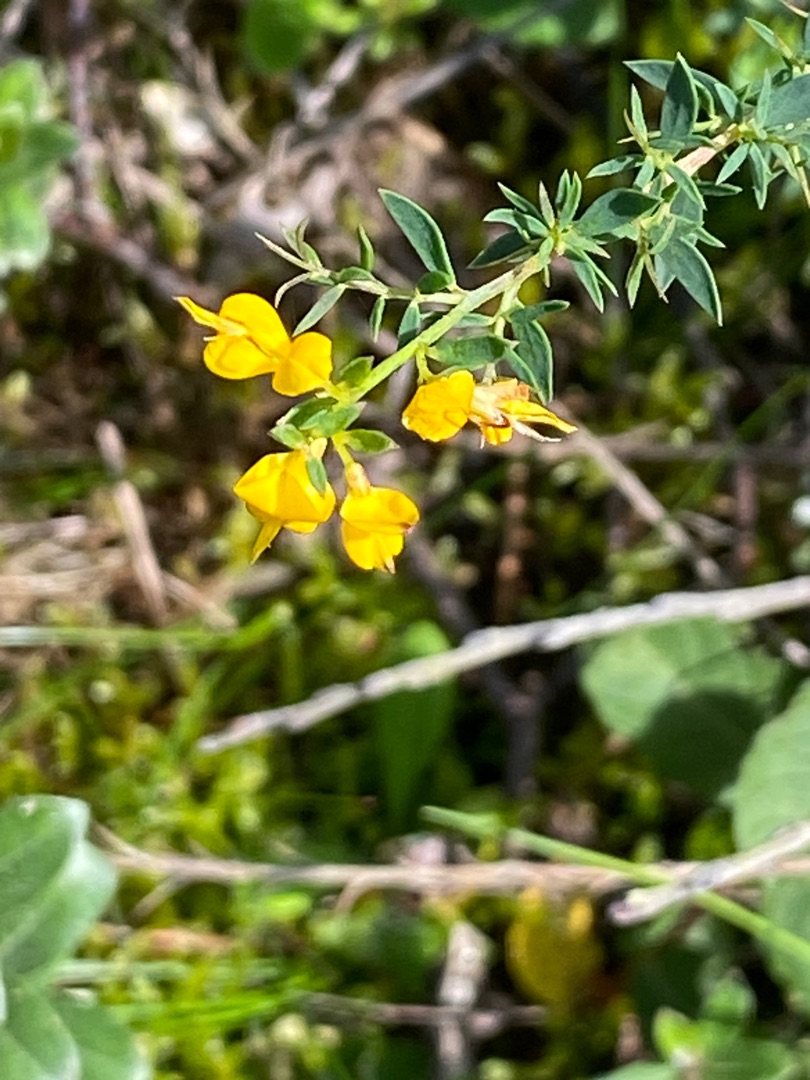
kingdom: Plantae
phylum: Tracheophyta
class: Magnoliopsida
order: Fabales
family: Fabaceae
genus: Genista
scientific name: Genista anglica
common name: Engelsk visse
